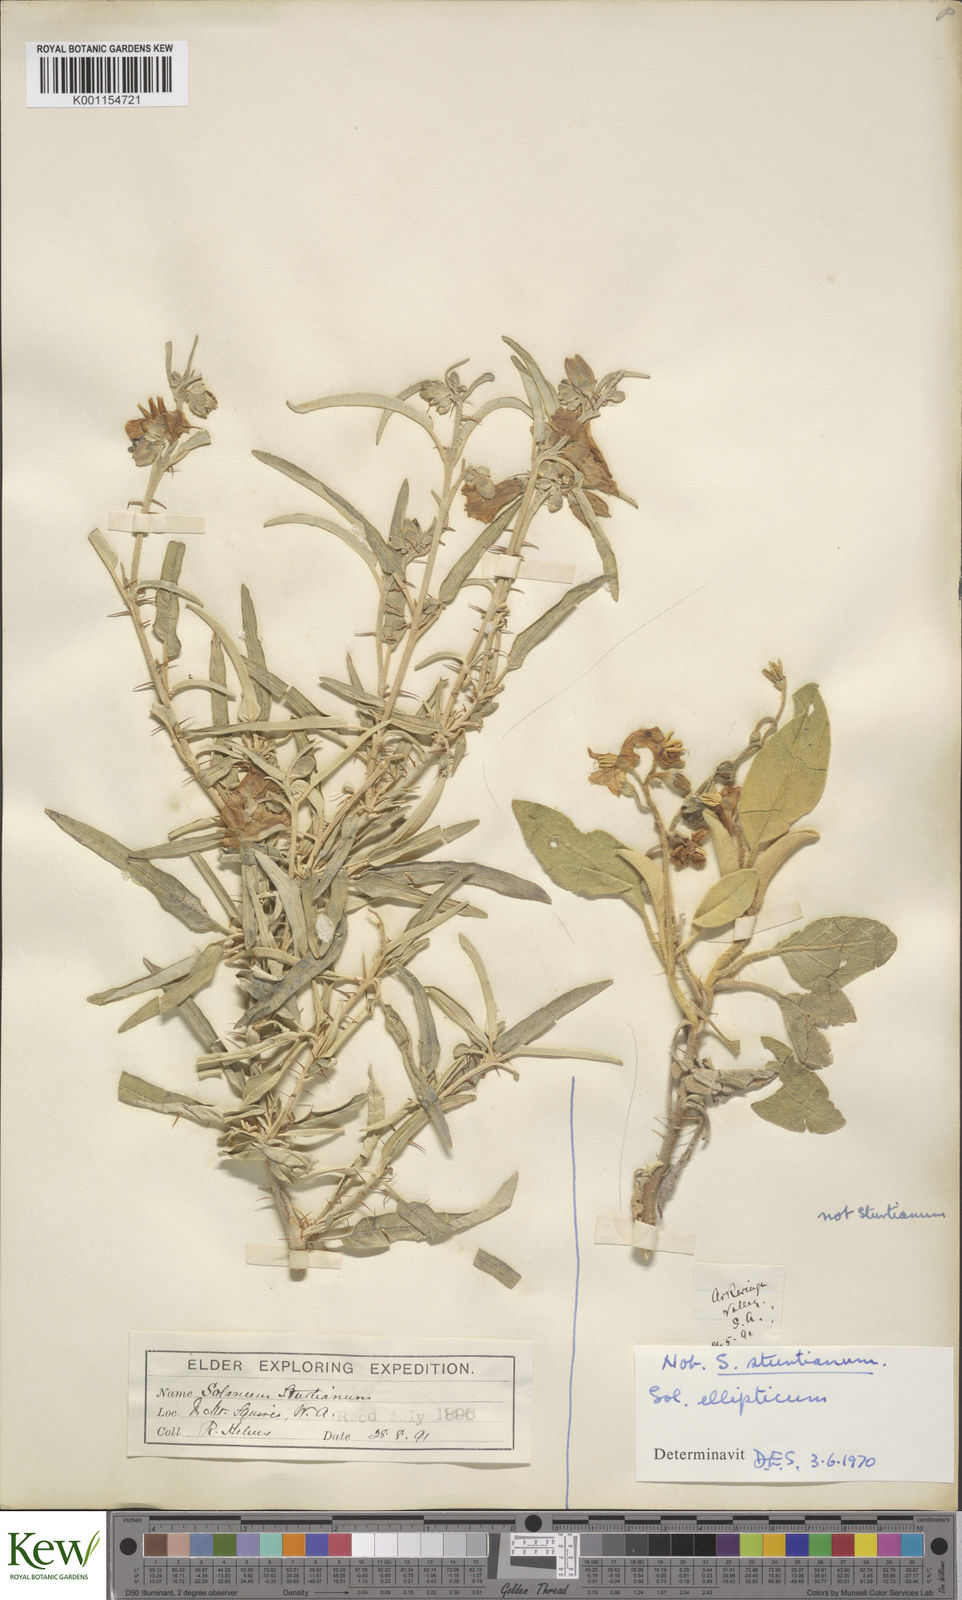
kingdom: Plantae
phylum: Tracheophyta
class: Magnoliopsida
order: Solanales
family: Solanaceae
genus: Solanum
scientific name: Solanum sturtianum
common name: Thargomindah nightshade
